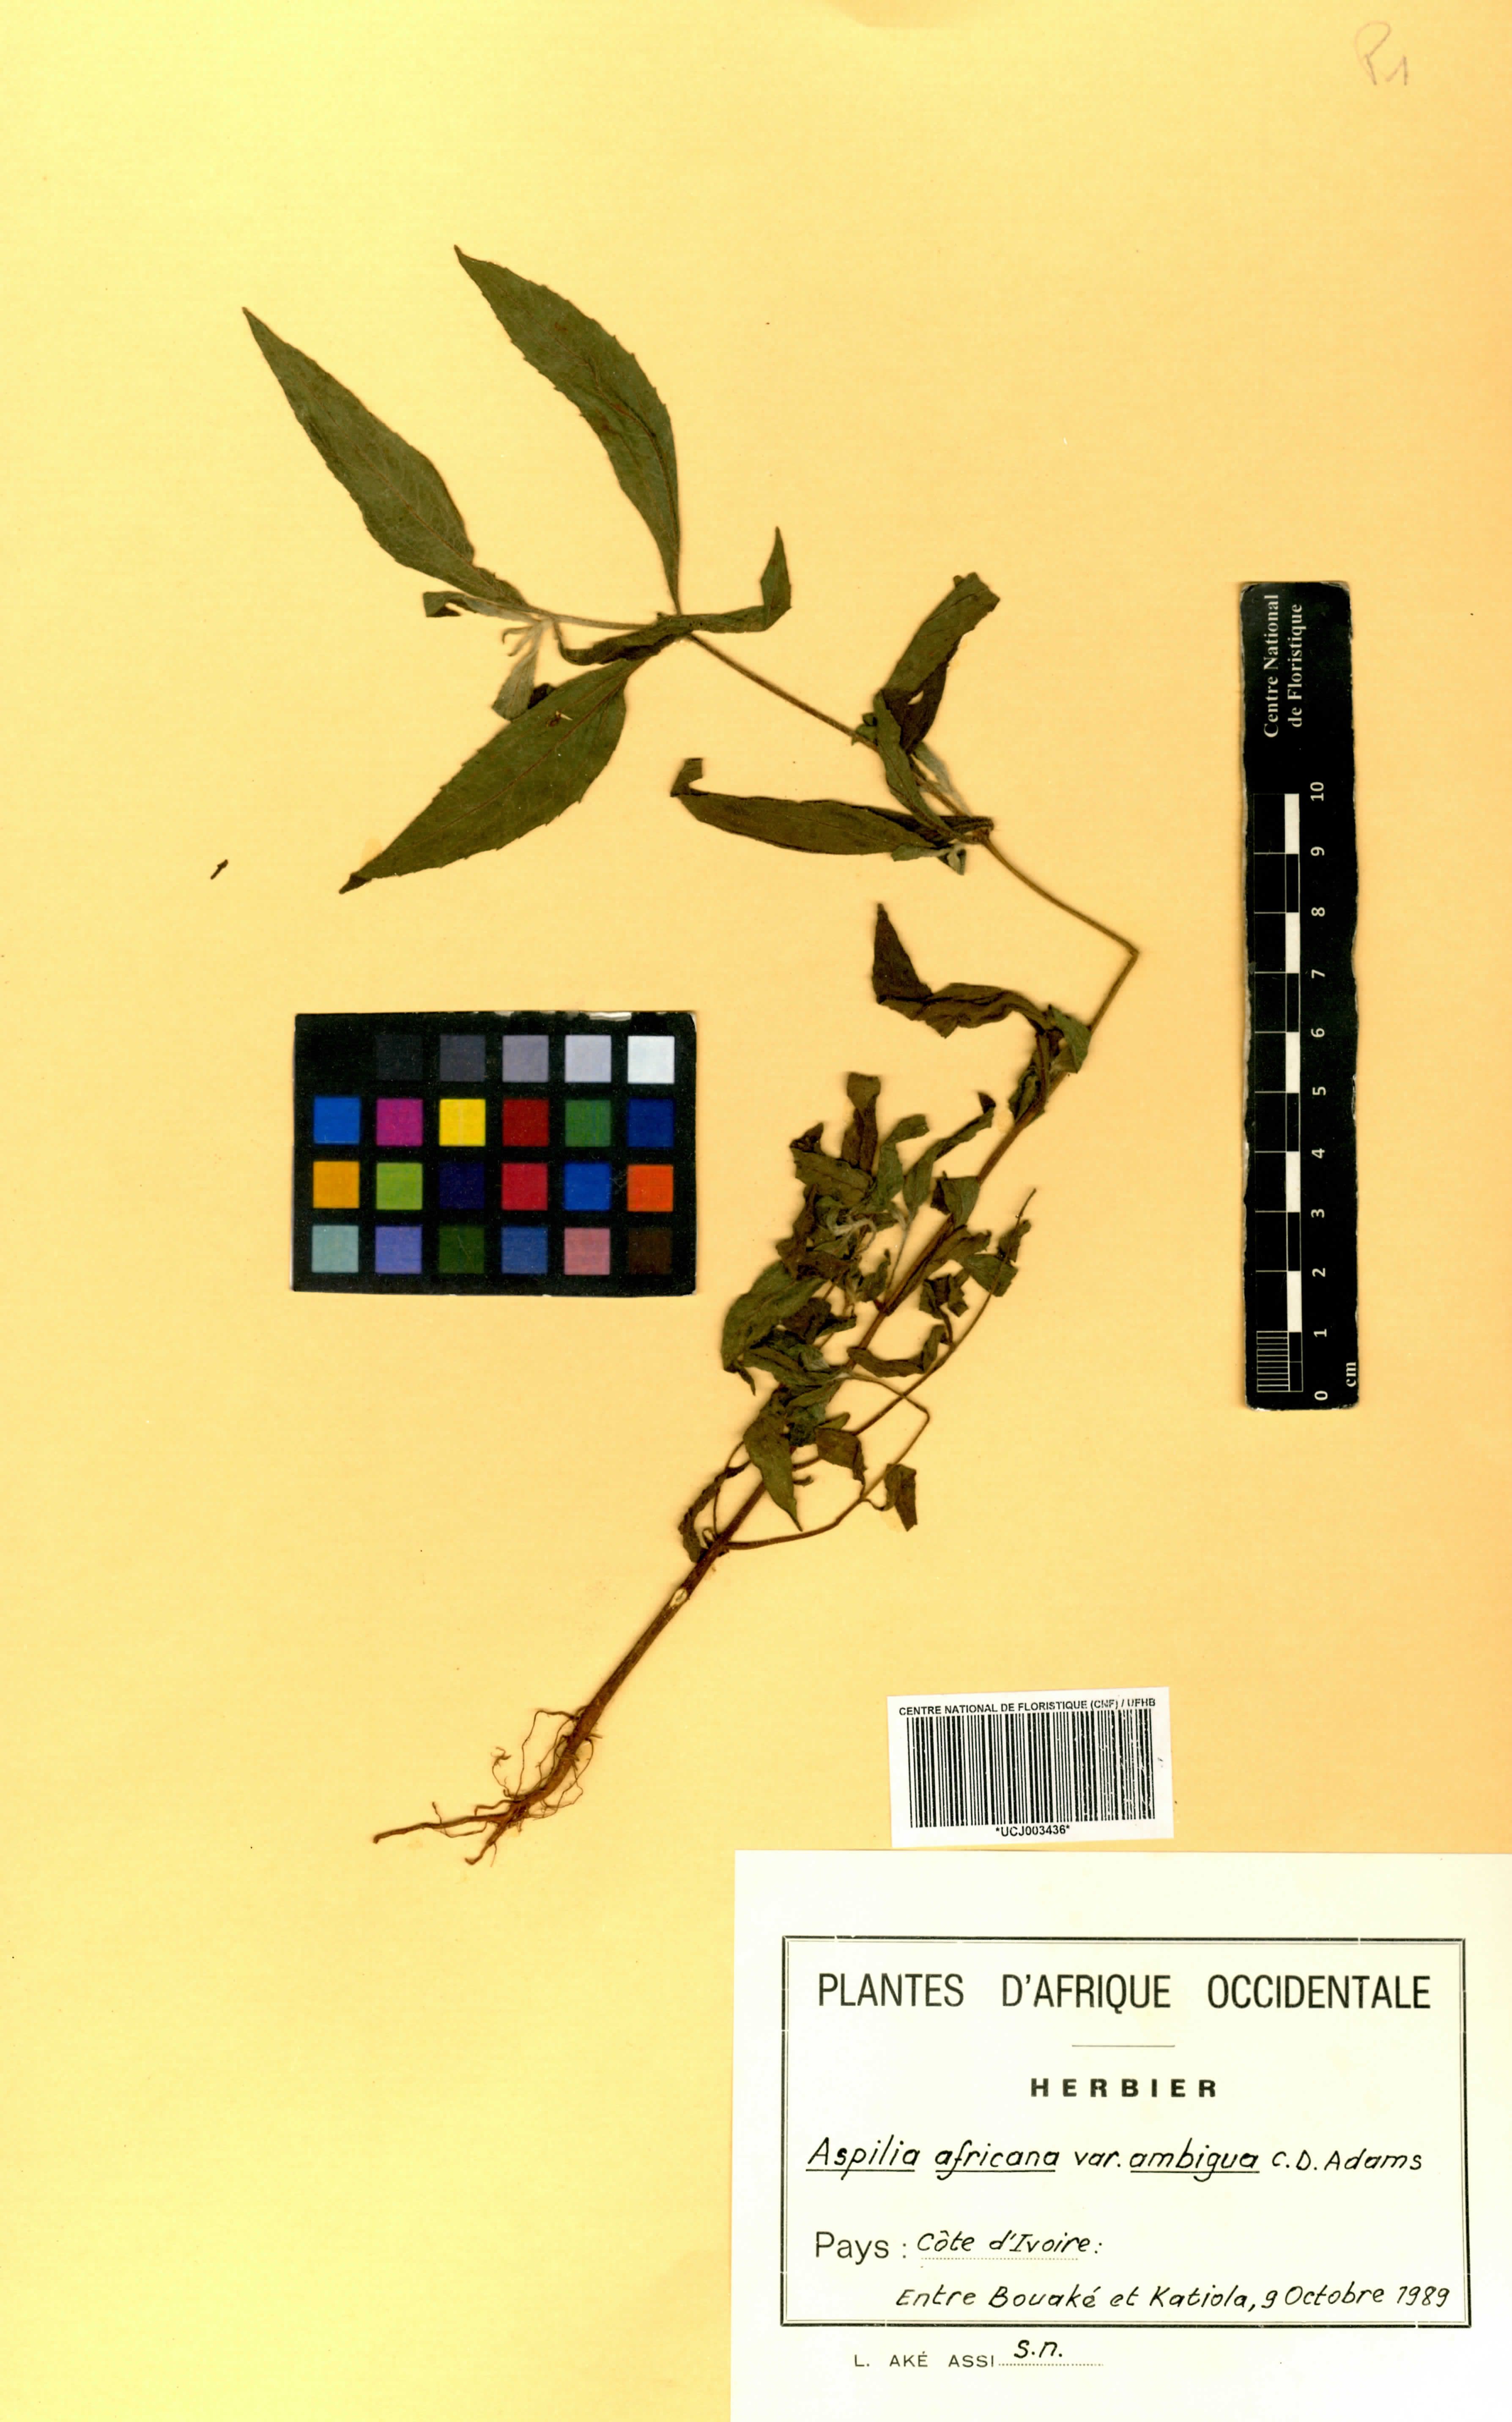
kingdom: Plantae
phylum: Tracheophyta
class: Magnoliopsida
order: Asterales
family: Asteraceae
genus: Aspilia
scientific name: Aspilia africana
